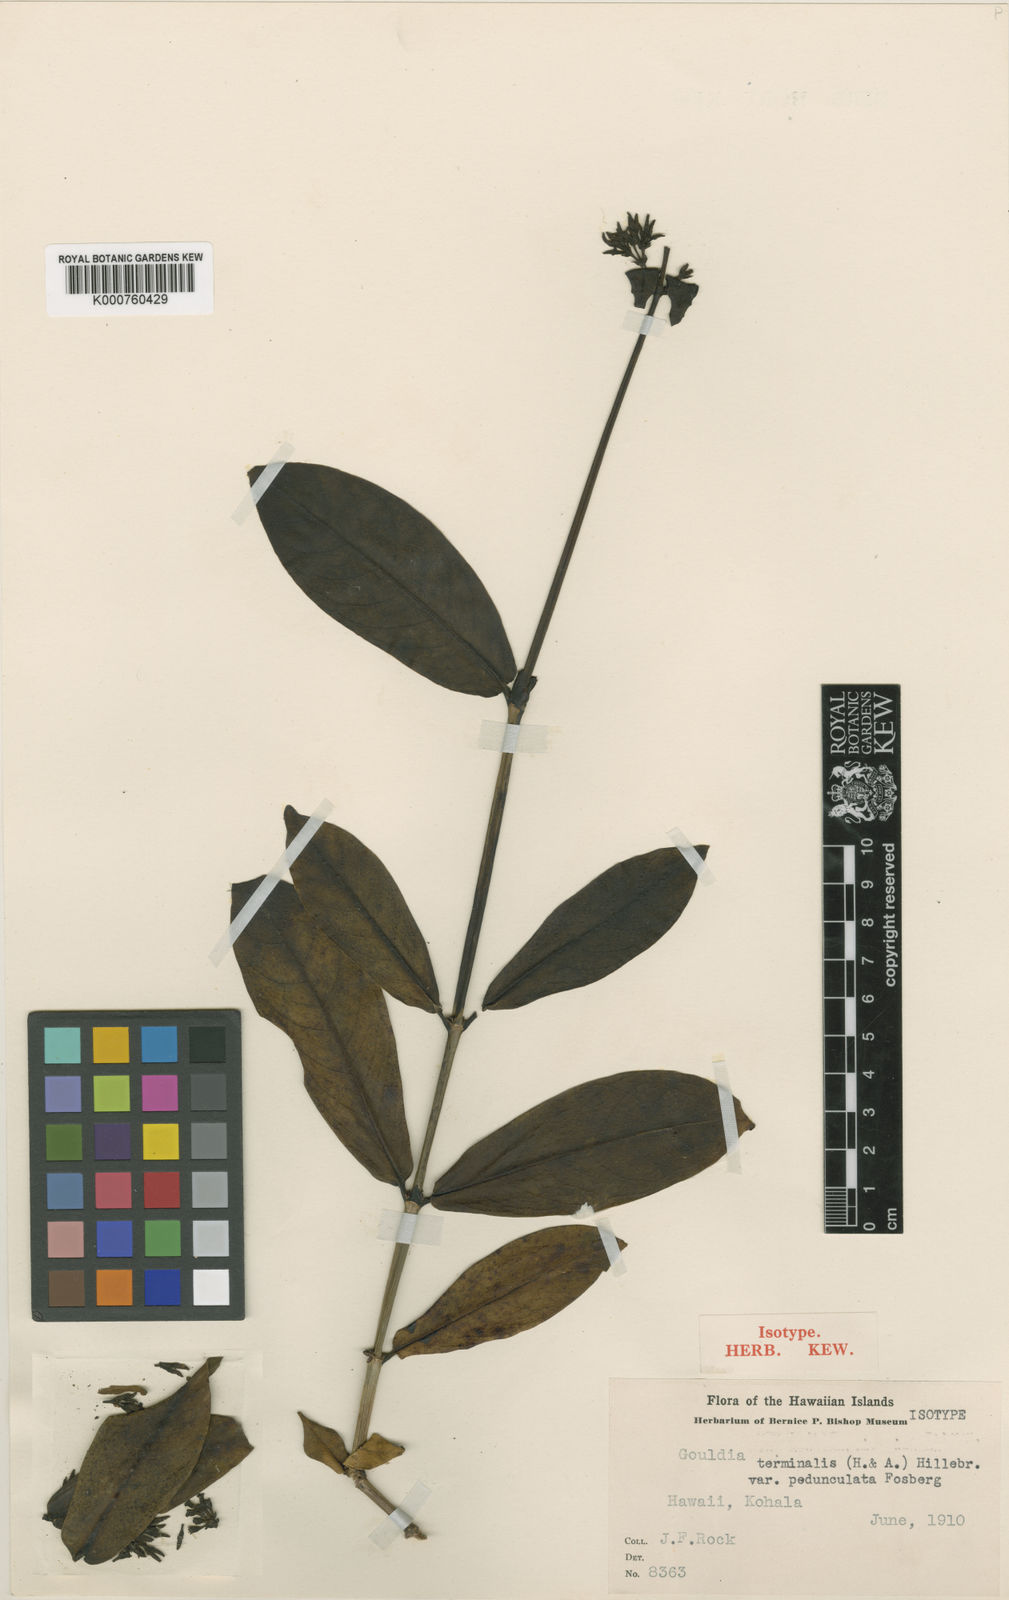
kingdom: Plantae
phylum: Tracheophyta
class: Magnoliopsida
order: Gentianales
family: Rubiaceae
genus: Kadua
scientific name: Kadua affinis
